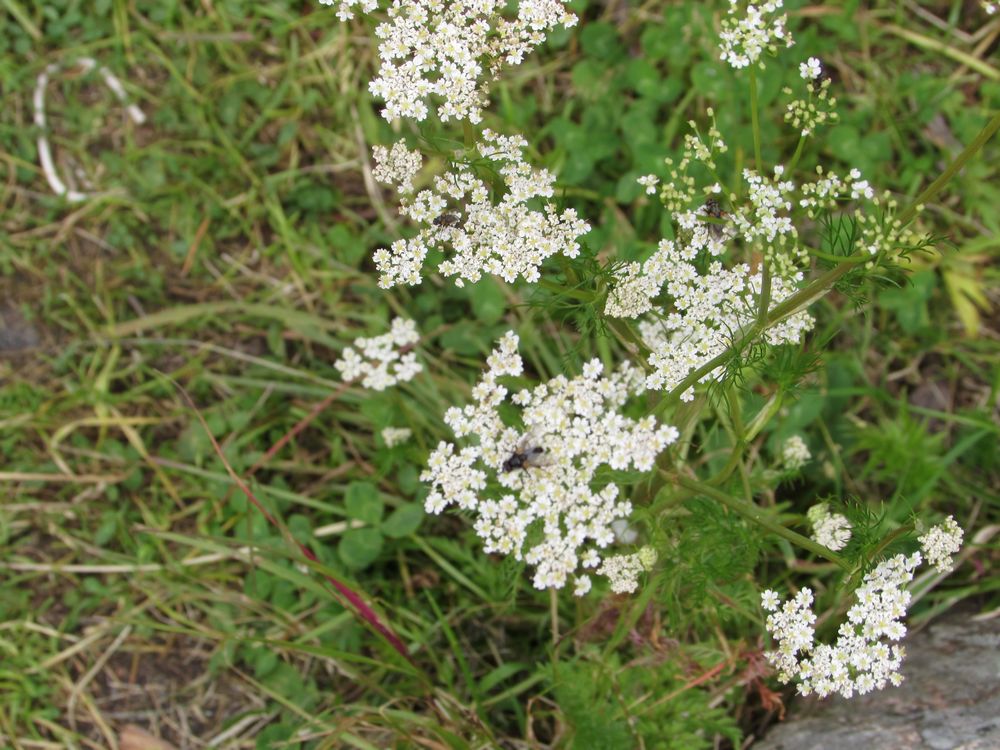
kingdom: Plantae
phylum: Tracheophyta
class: Magnoliopsida
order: Apiales
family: Apiaceae
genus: Carum
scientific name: Carum carvi
